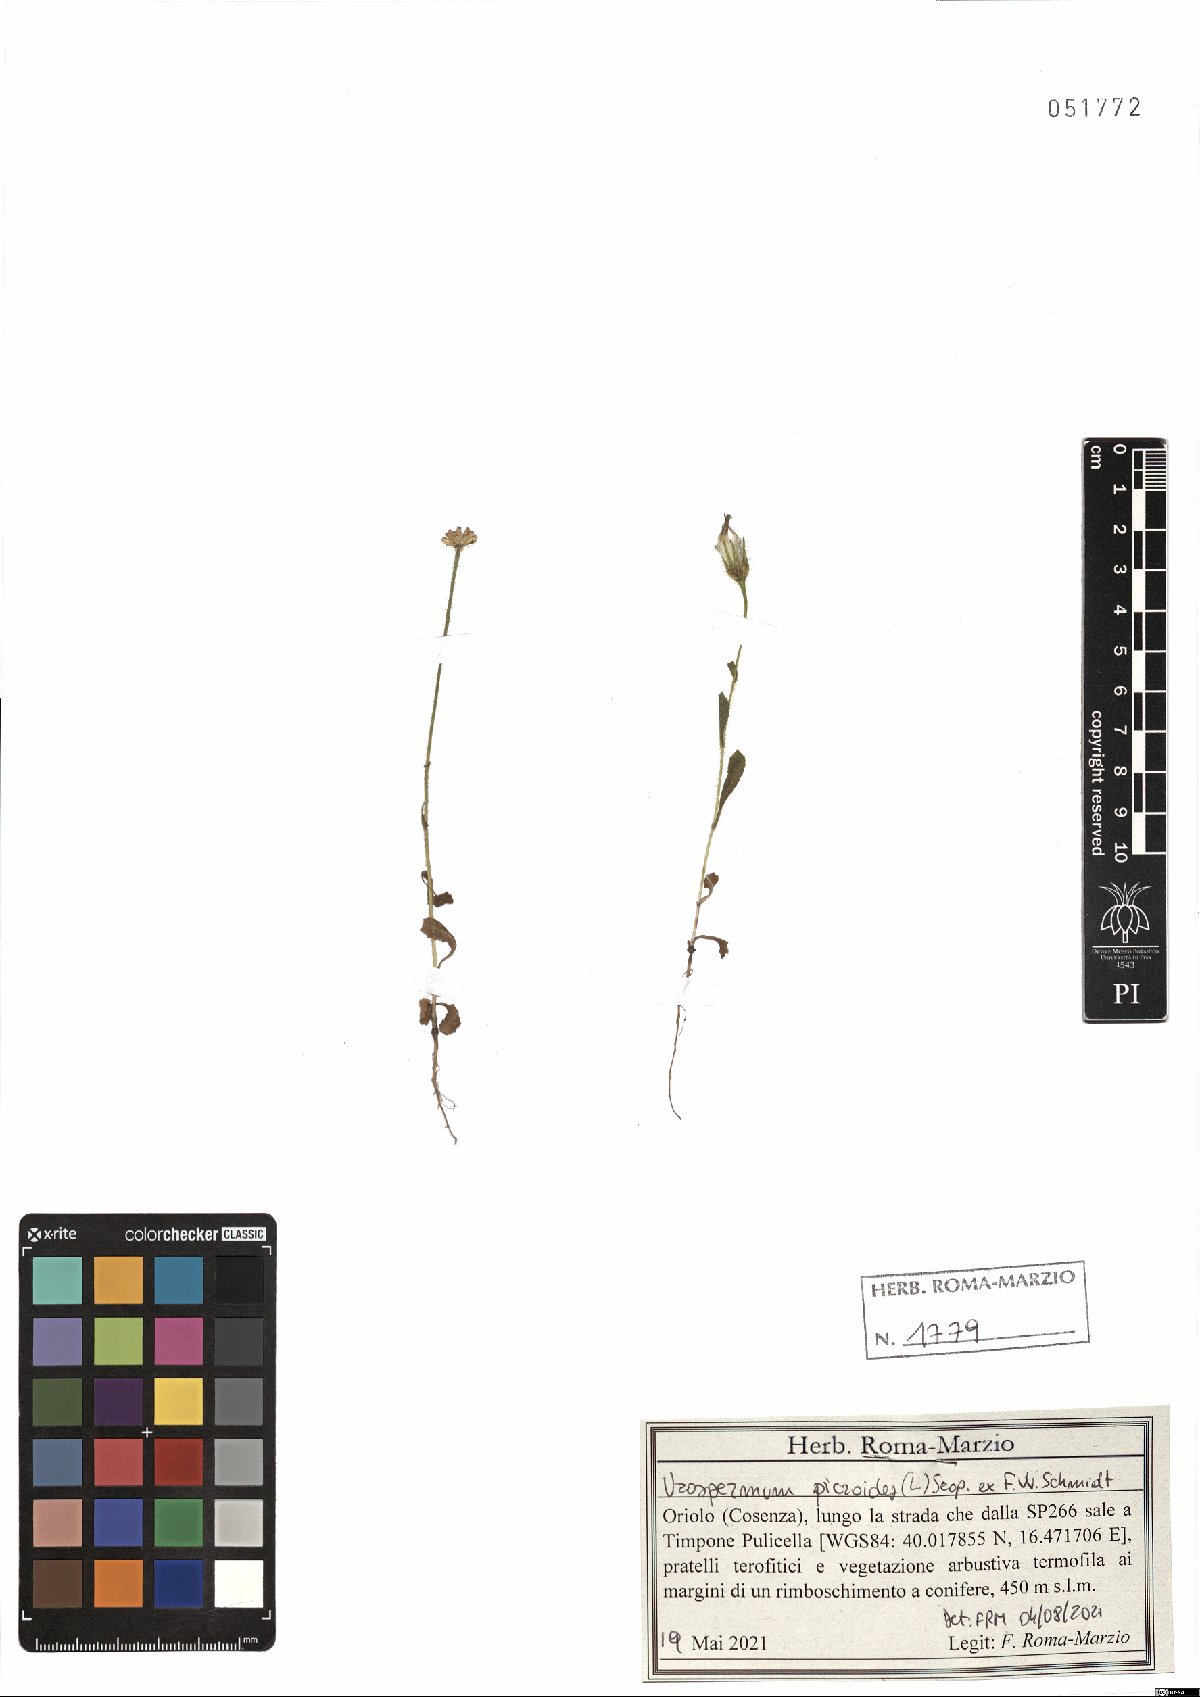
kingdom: Plantae
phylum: Tracheophyta
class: Magnoliopsida
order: Asterales
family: Asteraceae
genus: Urospermum
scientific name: Urospermum picroides
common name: False hawkbit
